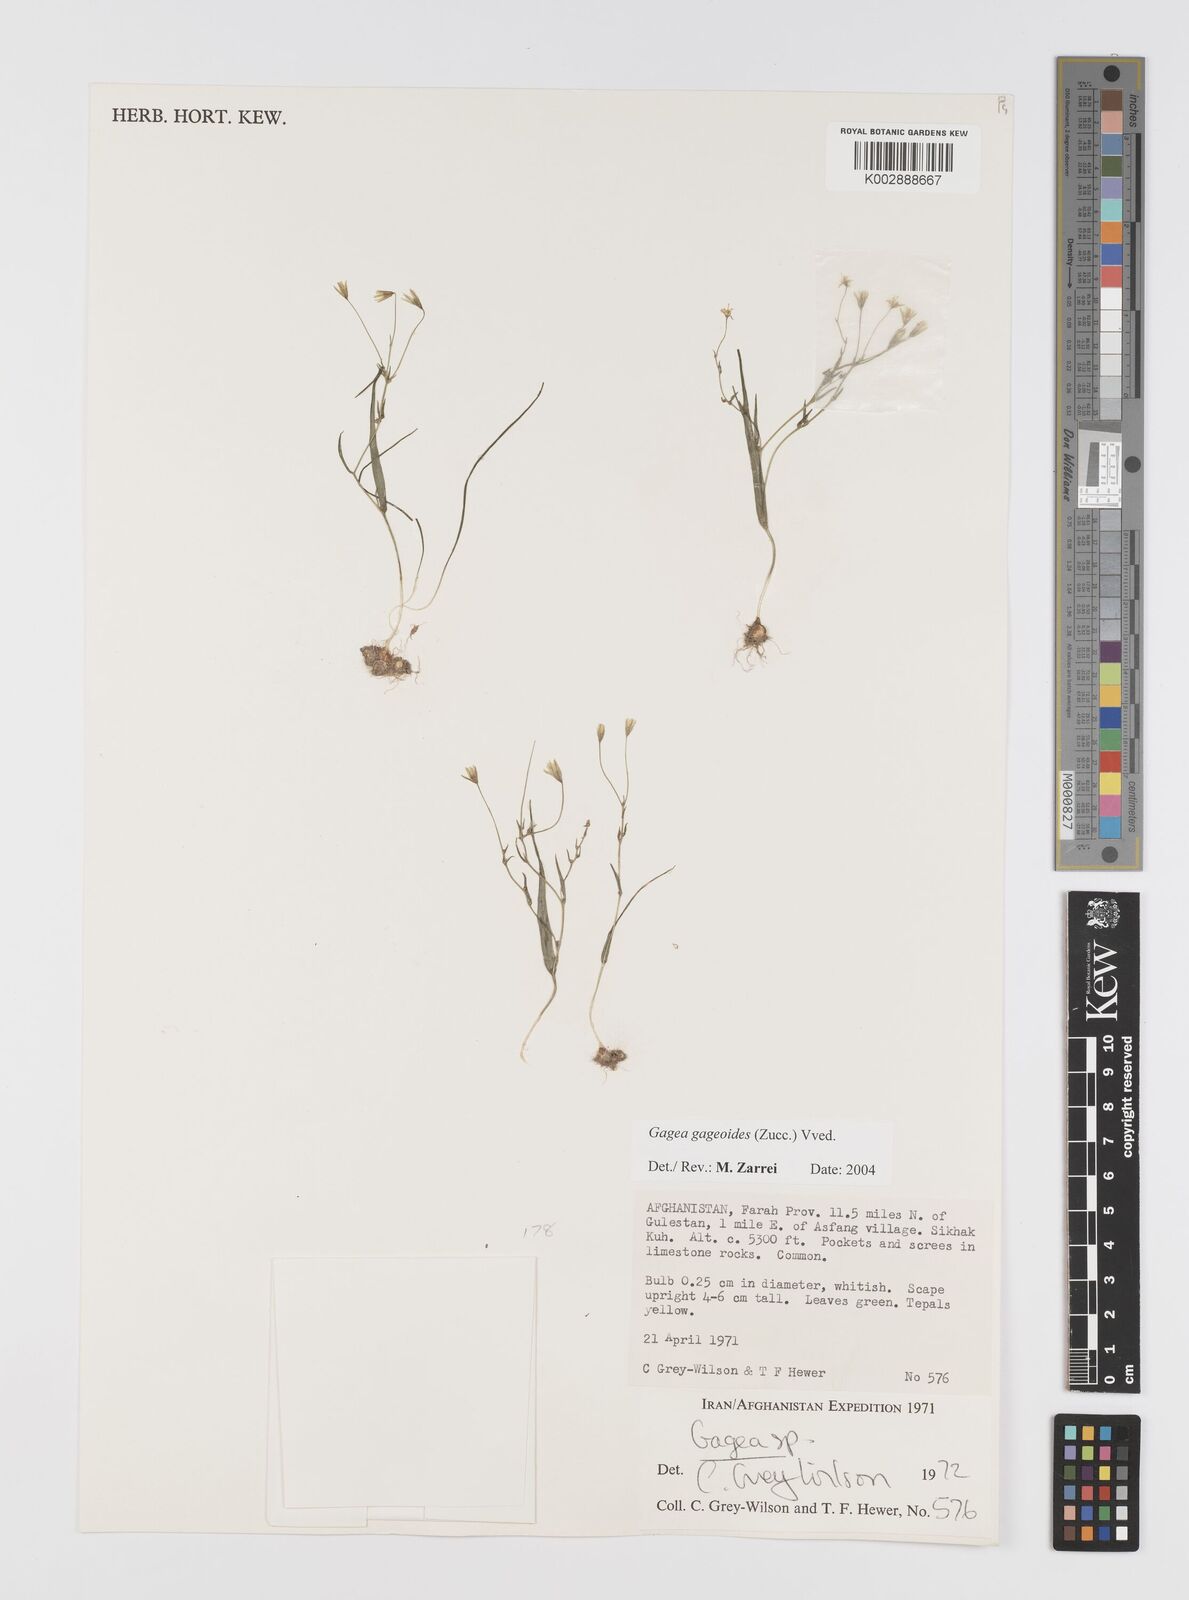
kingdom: Plantae
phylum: Tracheophyta
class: Liliopsida
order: Liliales
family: Liliaceae
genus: Gagea
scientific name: Gagea gageoides
